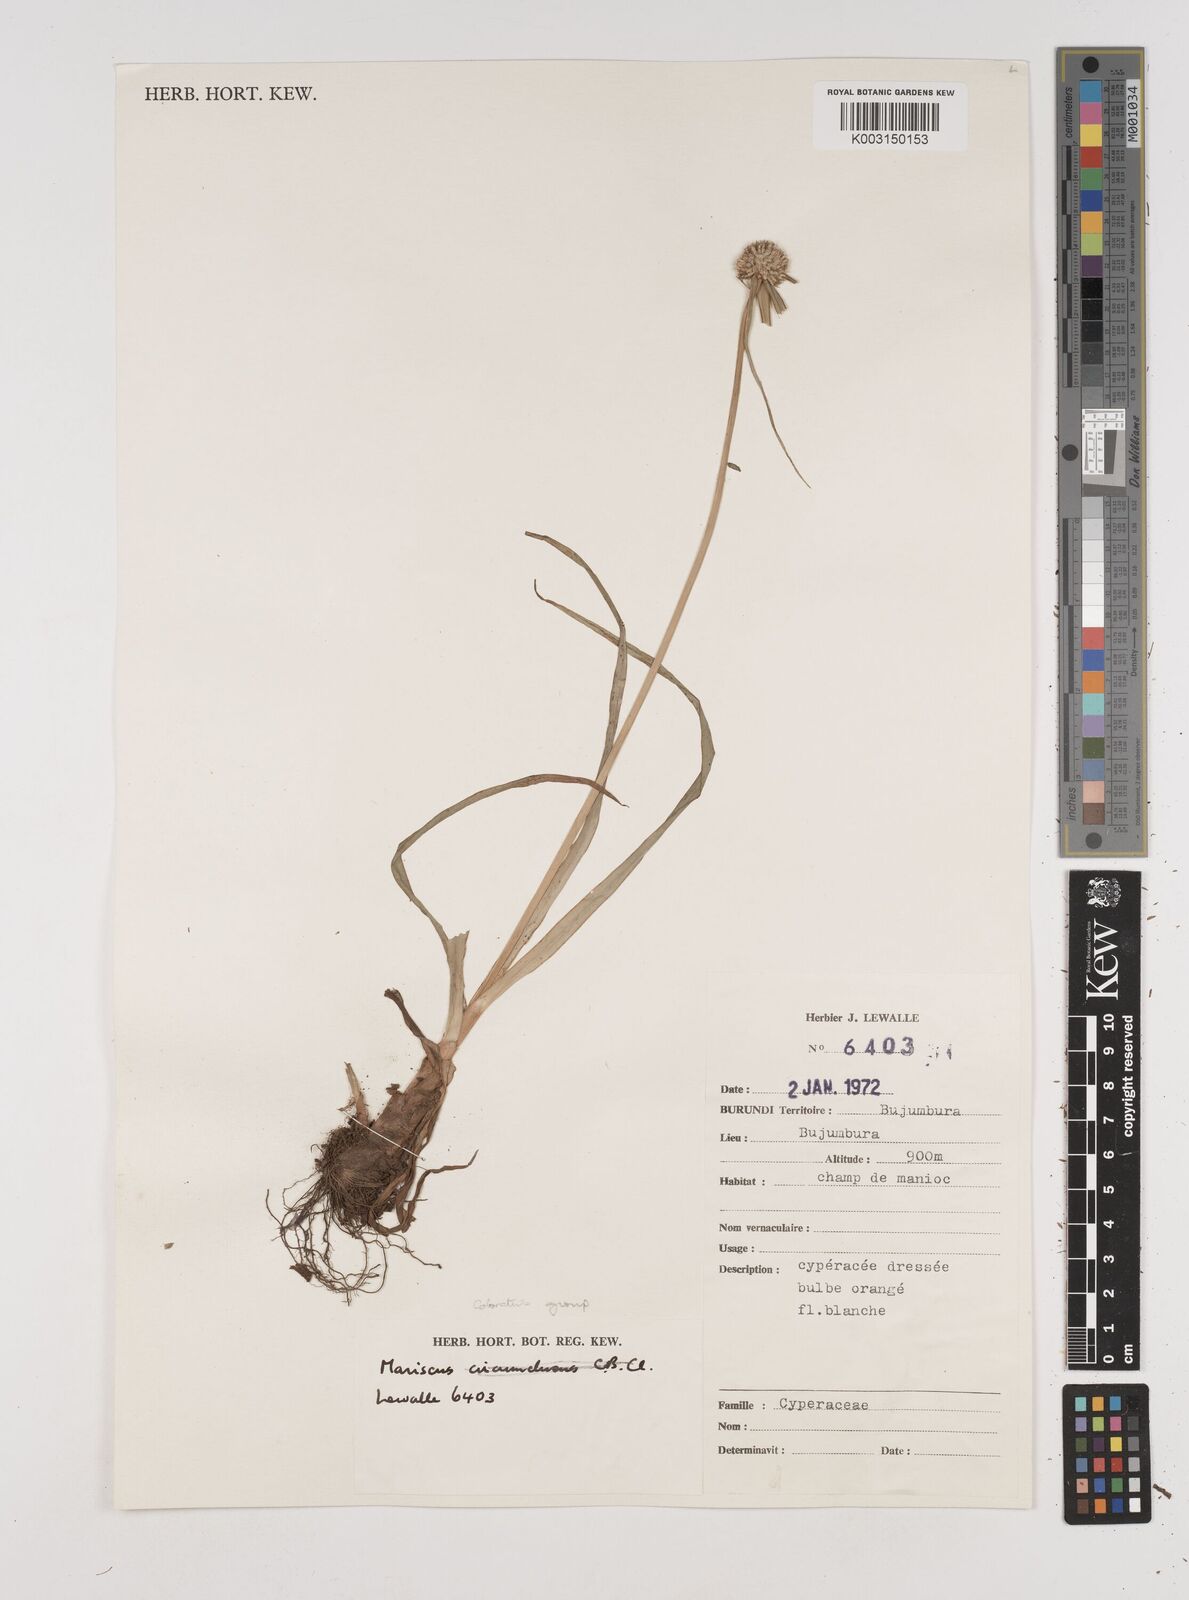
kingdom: Plantae
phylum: Tracheophyta
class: Liliopsida
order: Poales
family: Cyperaceae
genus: Cyperus
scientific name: Cyperus dubius
